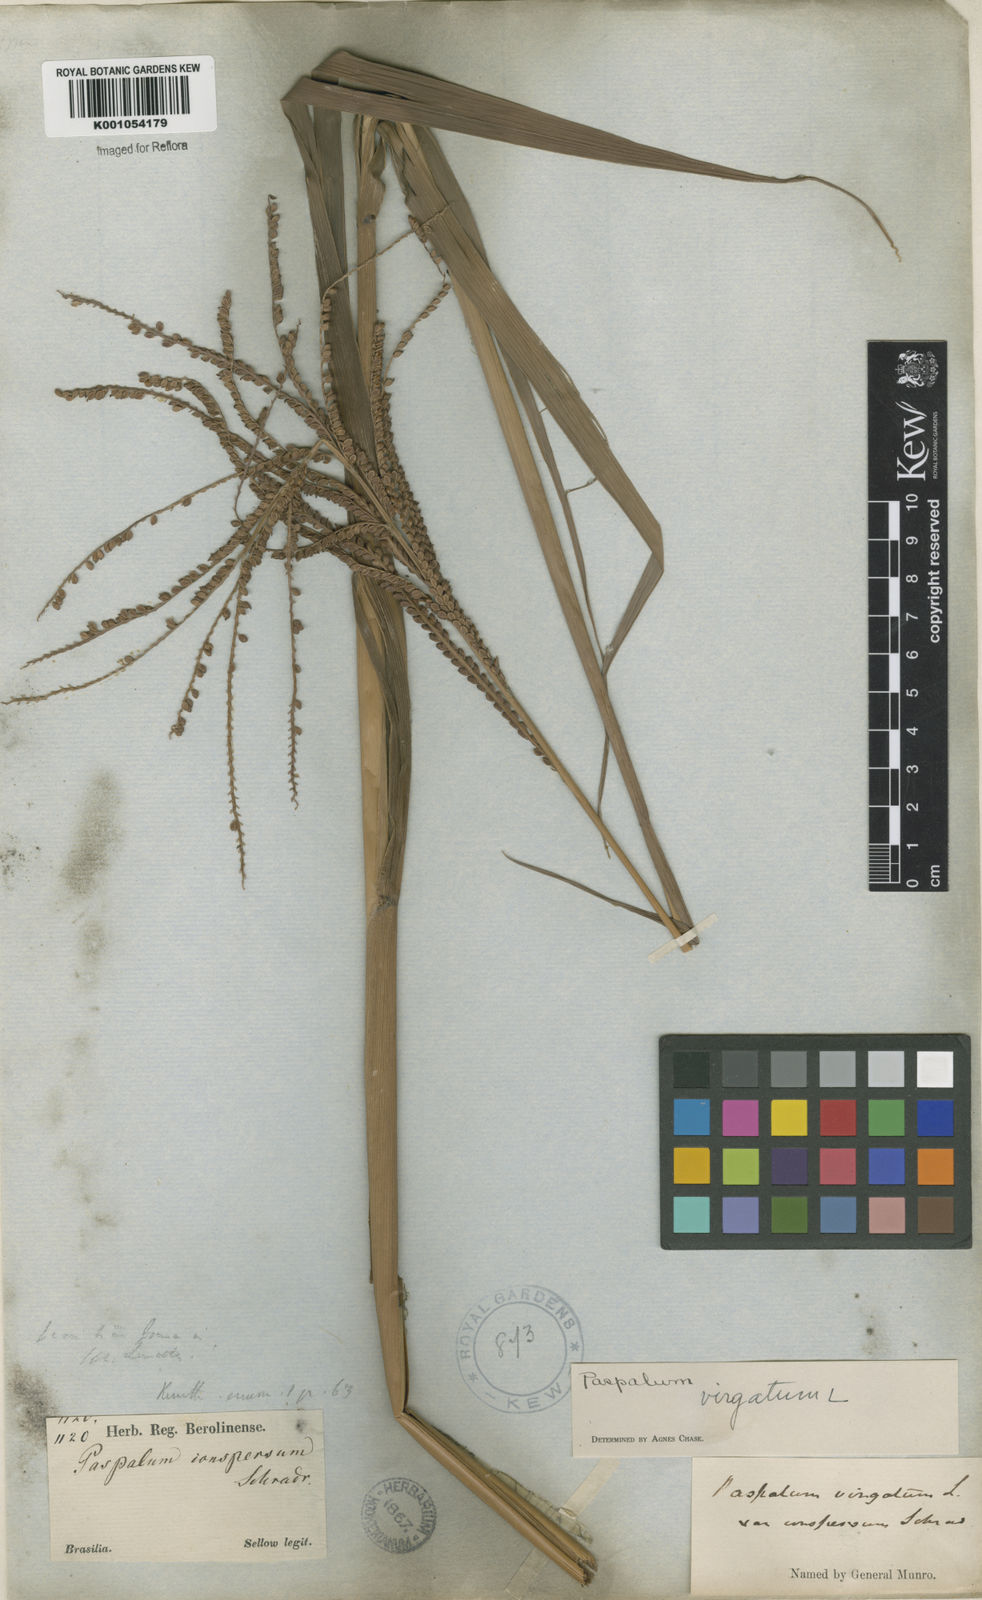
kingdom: Plantae
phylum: Tracheophyta
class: Liliopsida
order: Poales
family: Poaceae
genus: Paspalum
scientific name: Paspalum virgatum
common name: Talquezal
